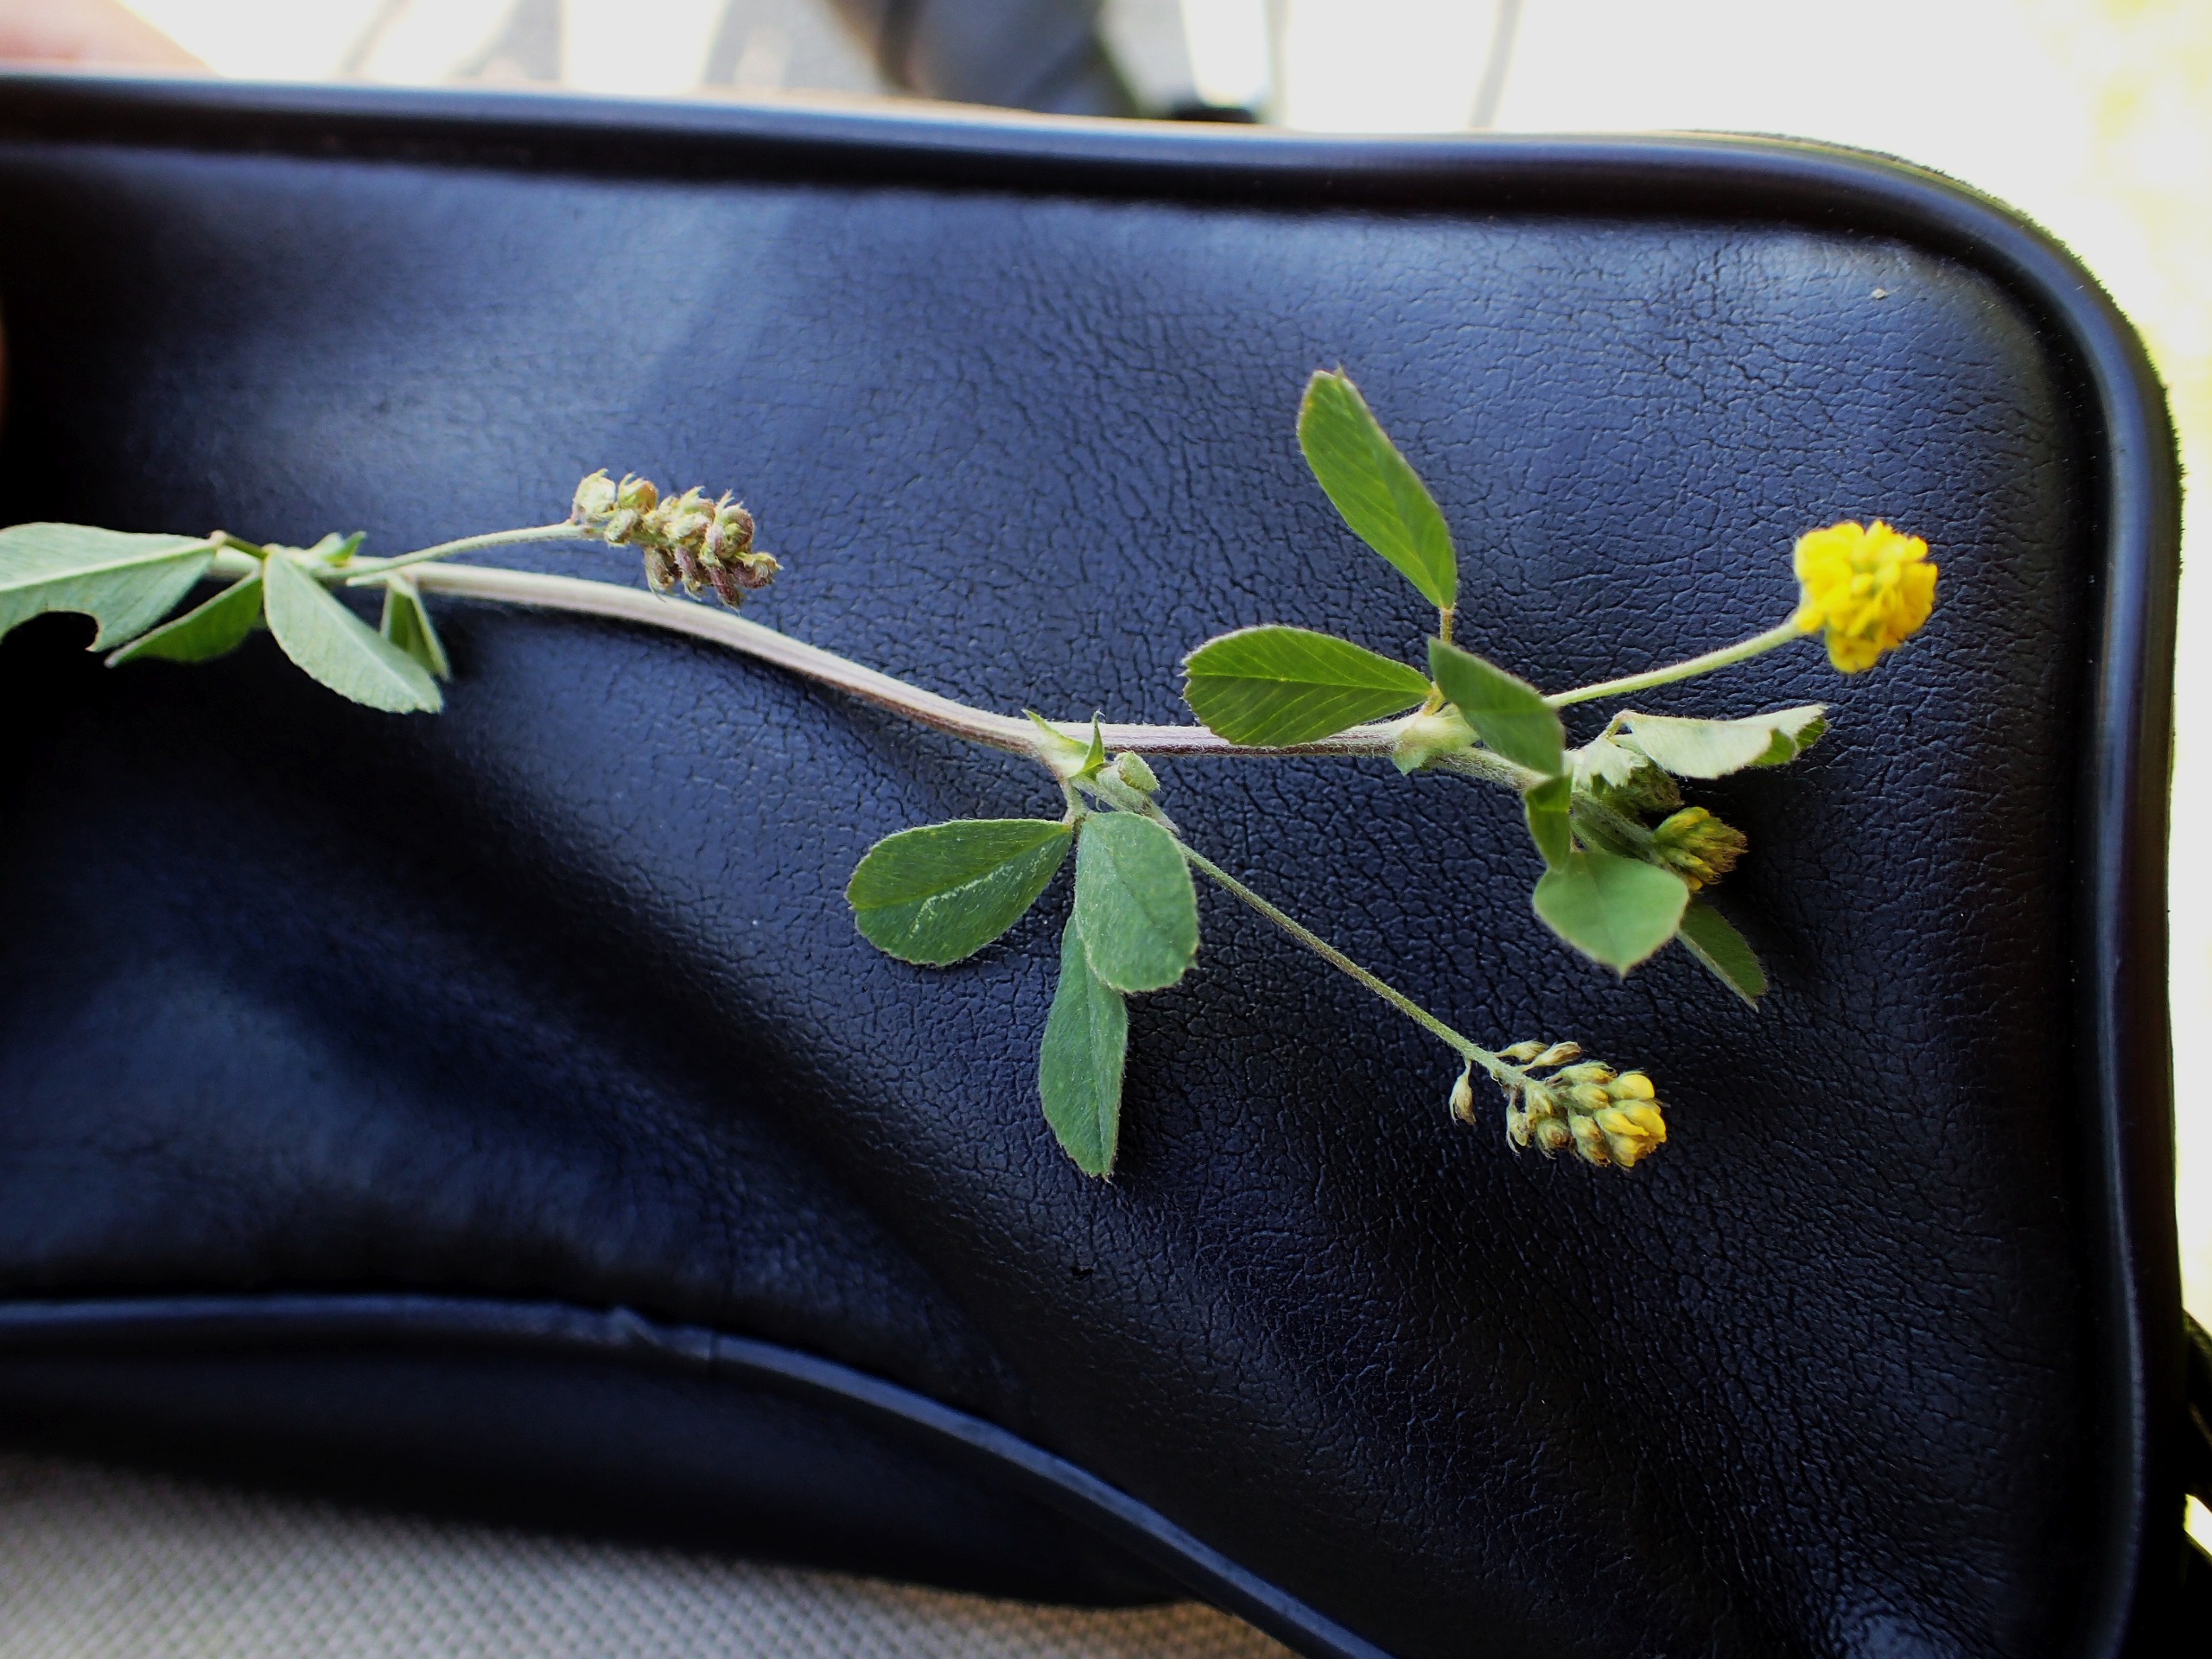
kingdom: Plantae
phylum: Tracheophyta
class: Magnoliopsida
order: Fabales
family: Fabaceae
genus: Medicago
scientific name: Medicago lupulina
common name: Humle-sneglebælg
